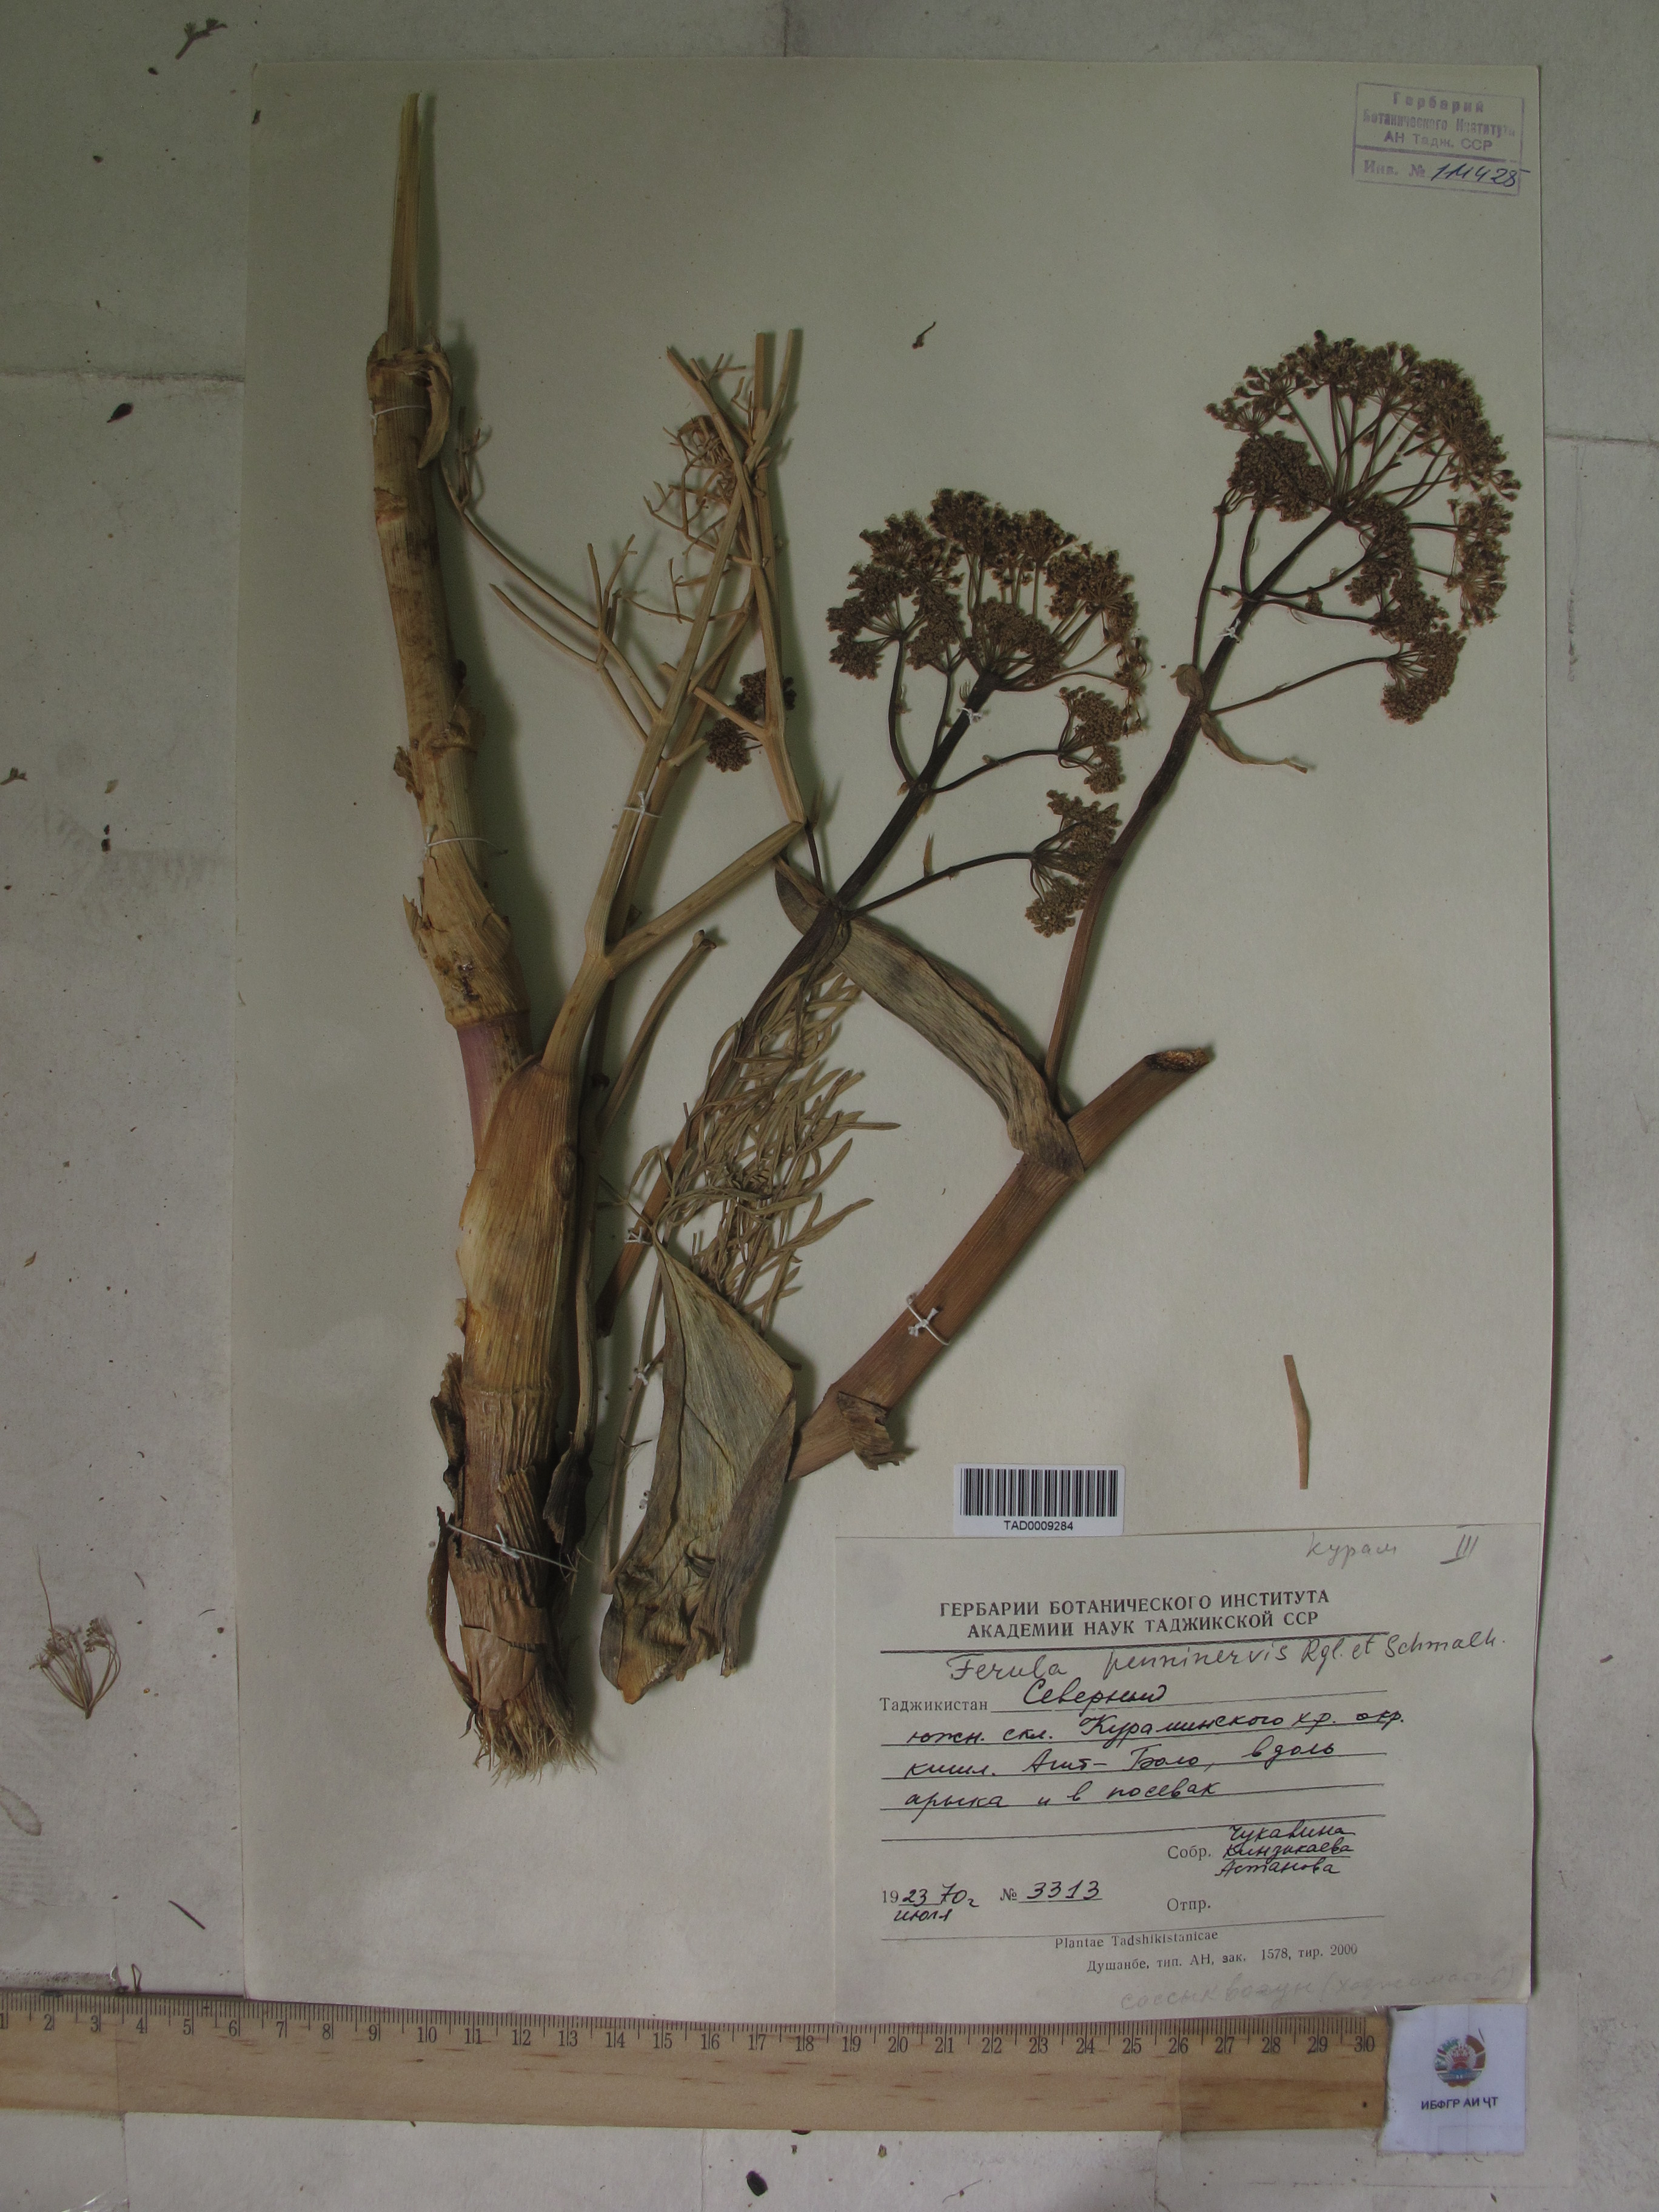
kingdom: Plantae
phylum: Tracheophyta
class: Magnoliopsida
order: Apiales
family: Apiaceae
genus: Ferula
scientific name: Ferula
